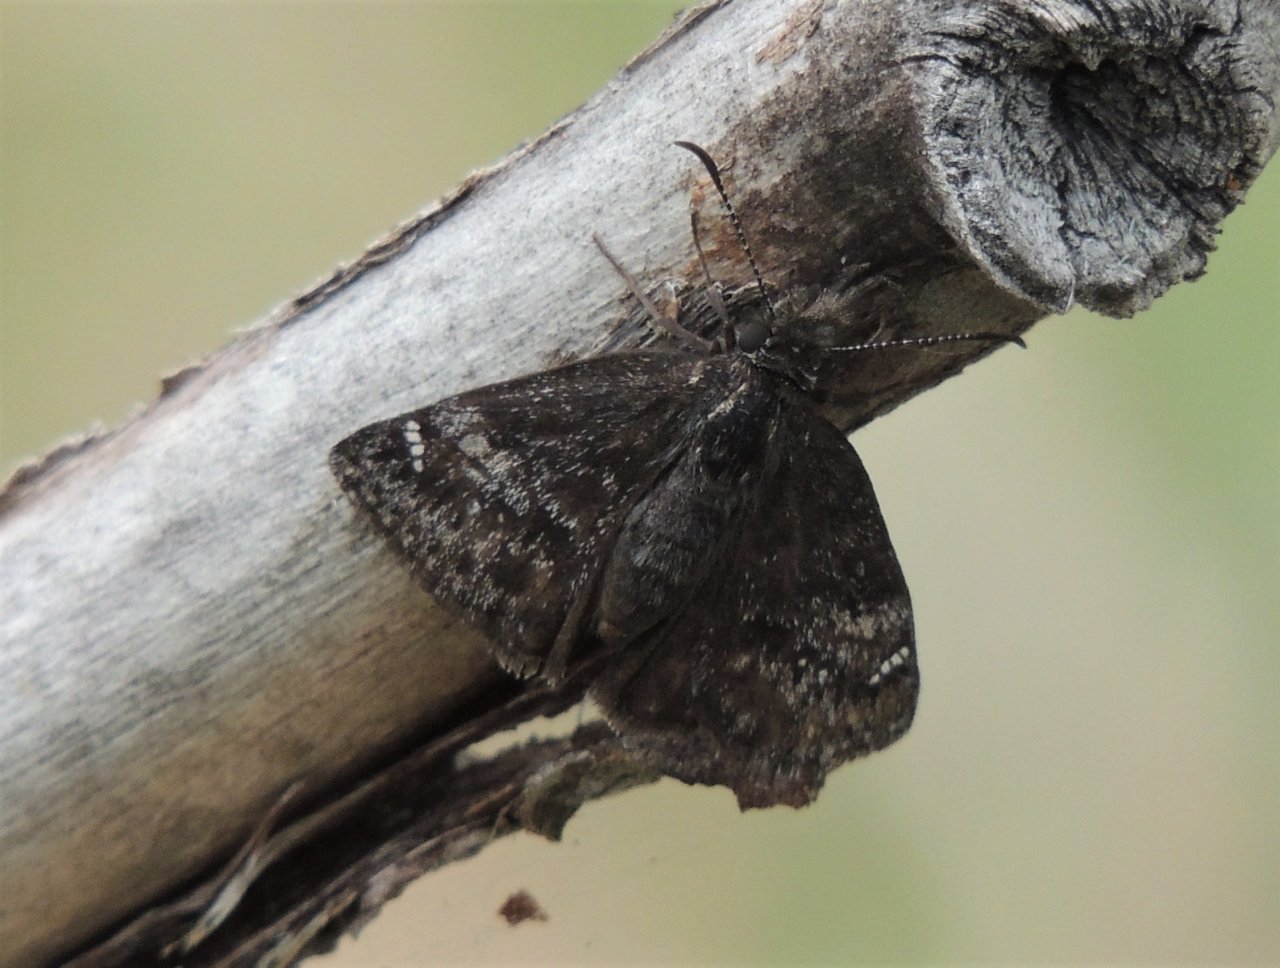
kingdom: Animalia
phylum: Arthropoda
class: Insecta
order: Lepidoptera
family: Hesperiidae
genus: Gesta
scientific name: Gesta
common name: Persius Duskywing
